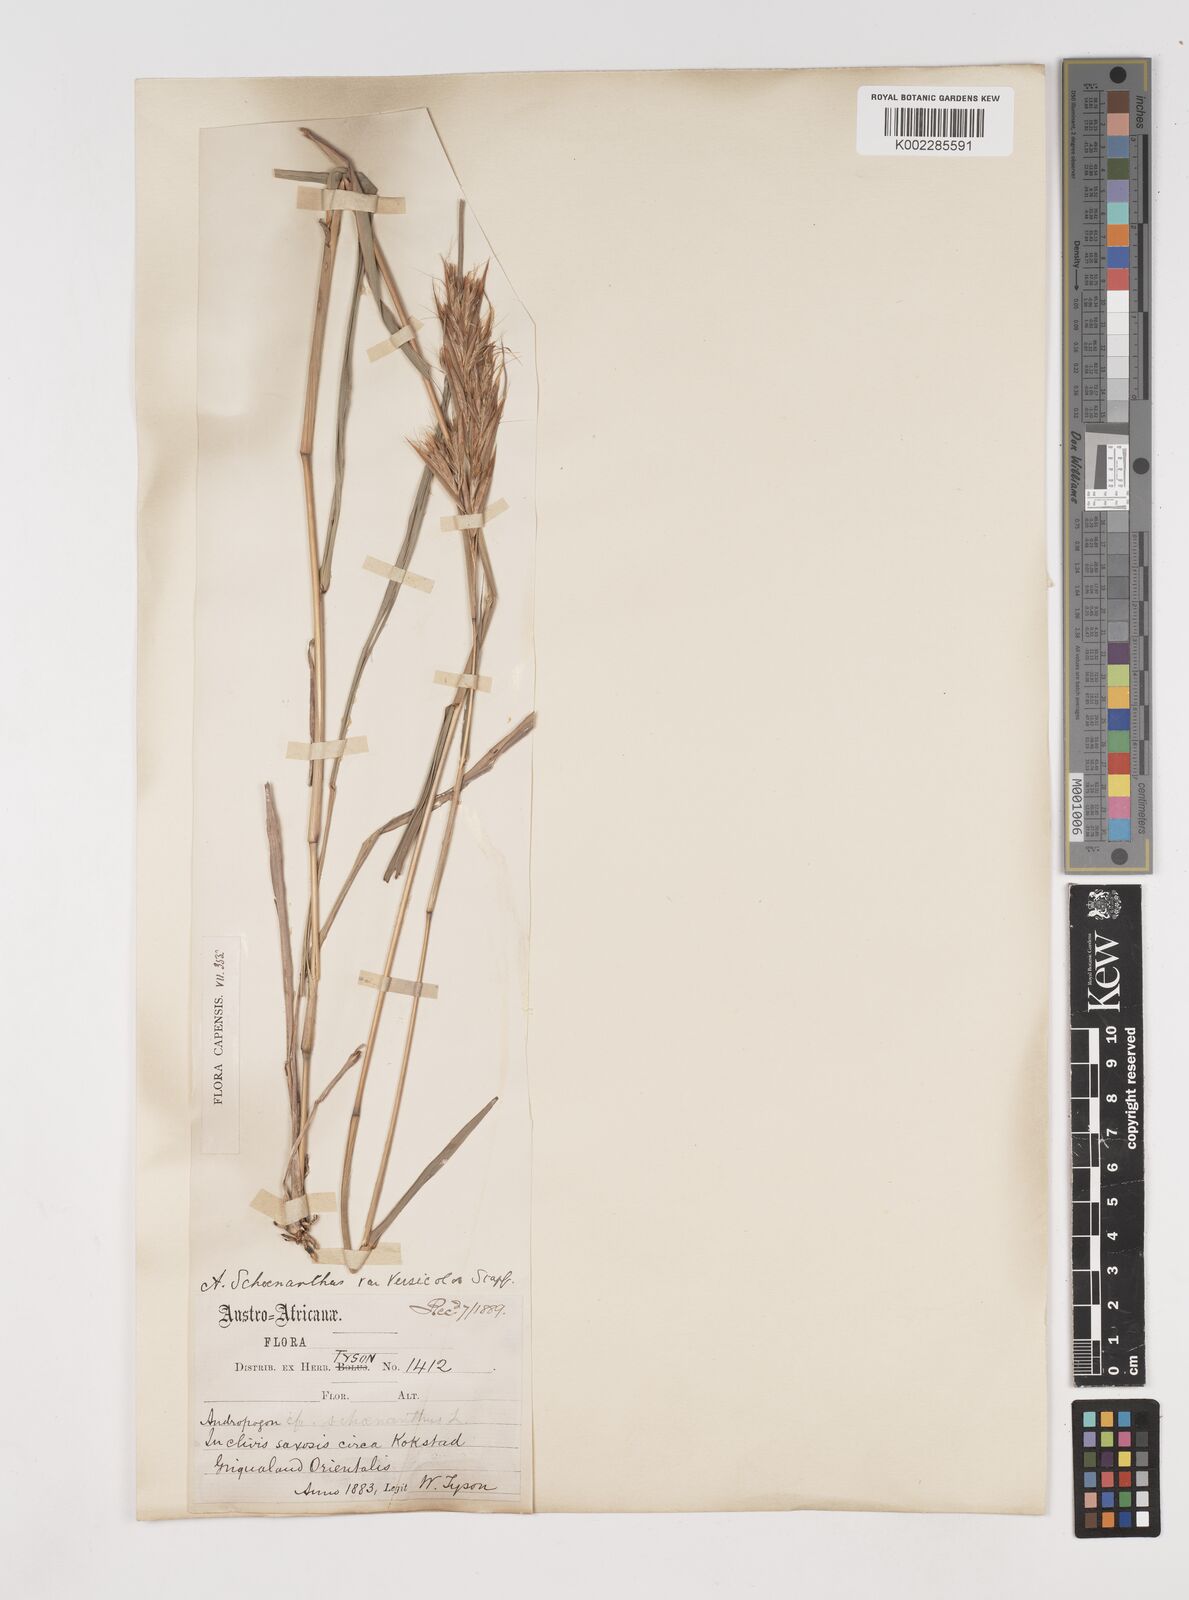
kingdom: Plantae
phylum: Tracheophyta
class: Liliopsida
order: Poales
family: Poaceae
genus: Cymbopogon
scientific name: Cymbopogon caesius
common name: Kachi grass
